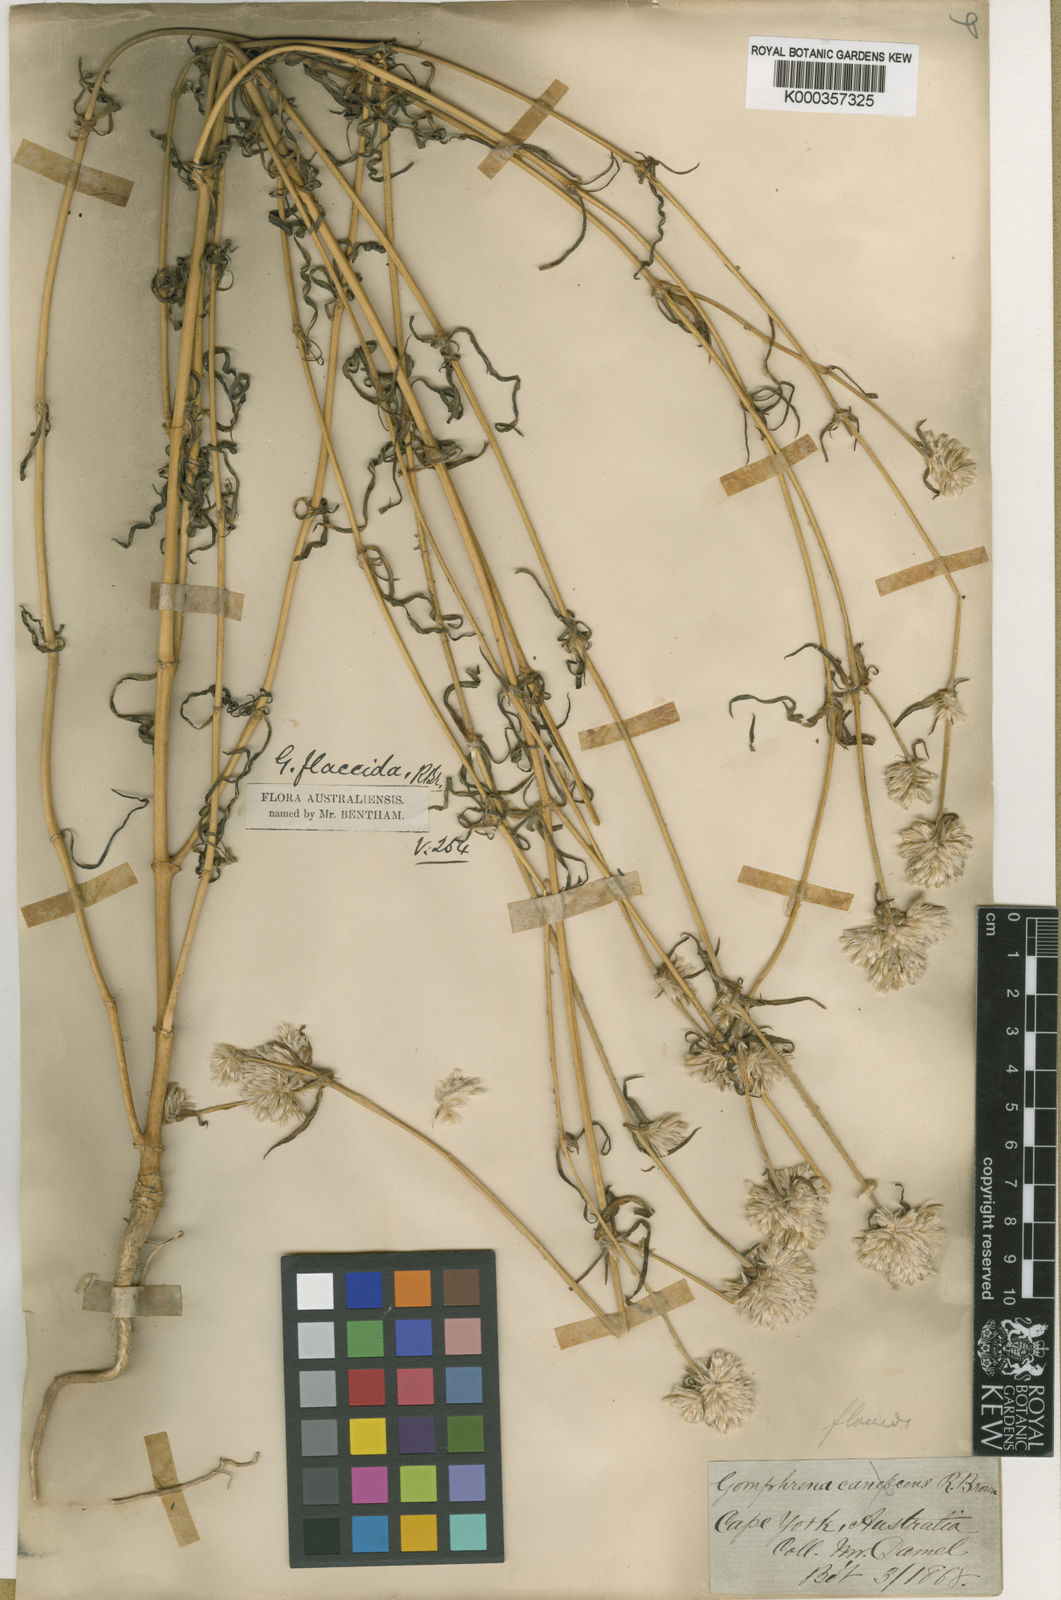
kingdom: Plantae
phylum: Tracheophyta
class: Magnoliopsida
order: Caryophyllales
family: Amaranthaceae
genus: Gomphrena
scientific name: Gomphrena flaccida
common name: Gomphrena-weed
